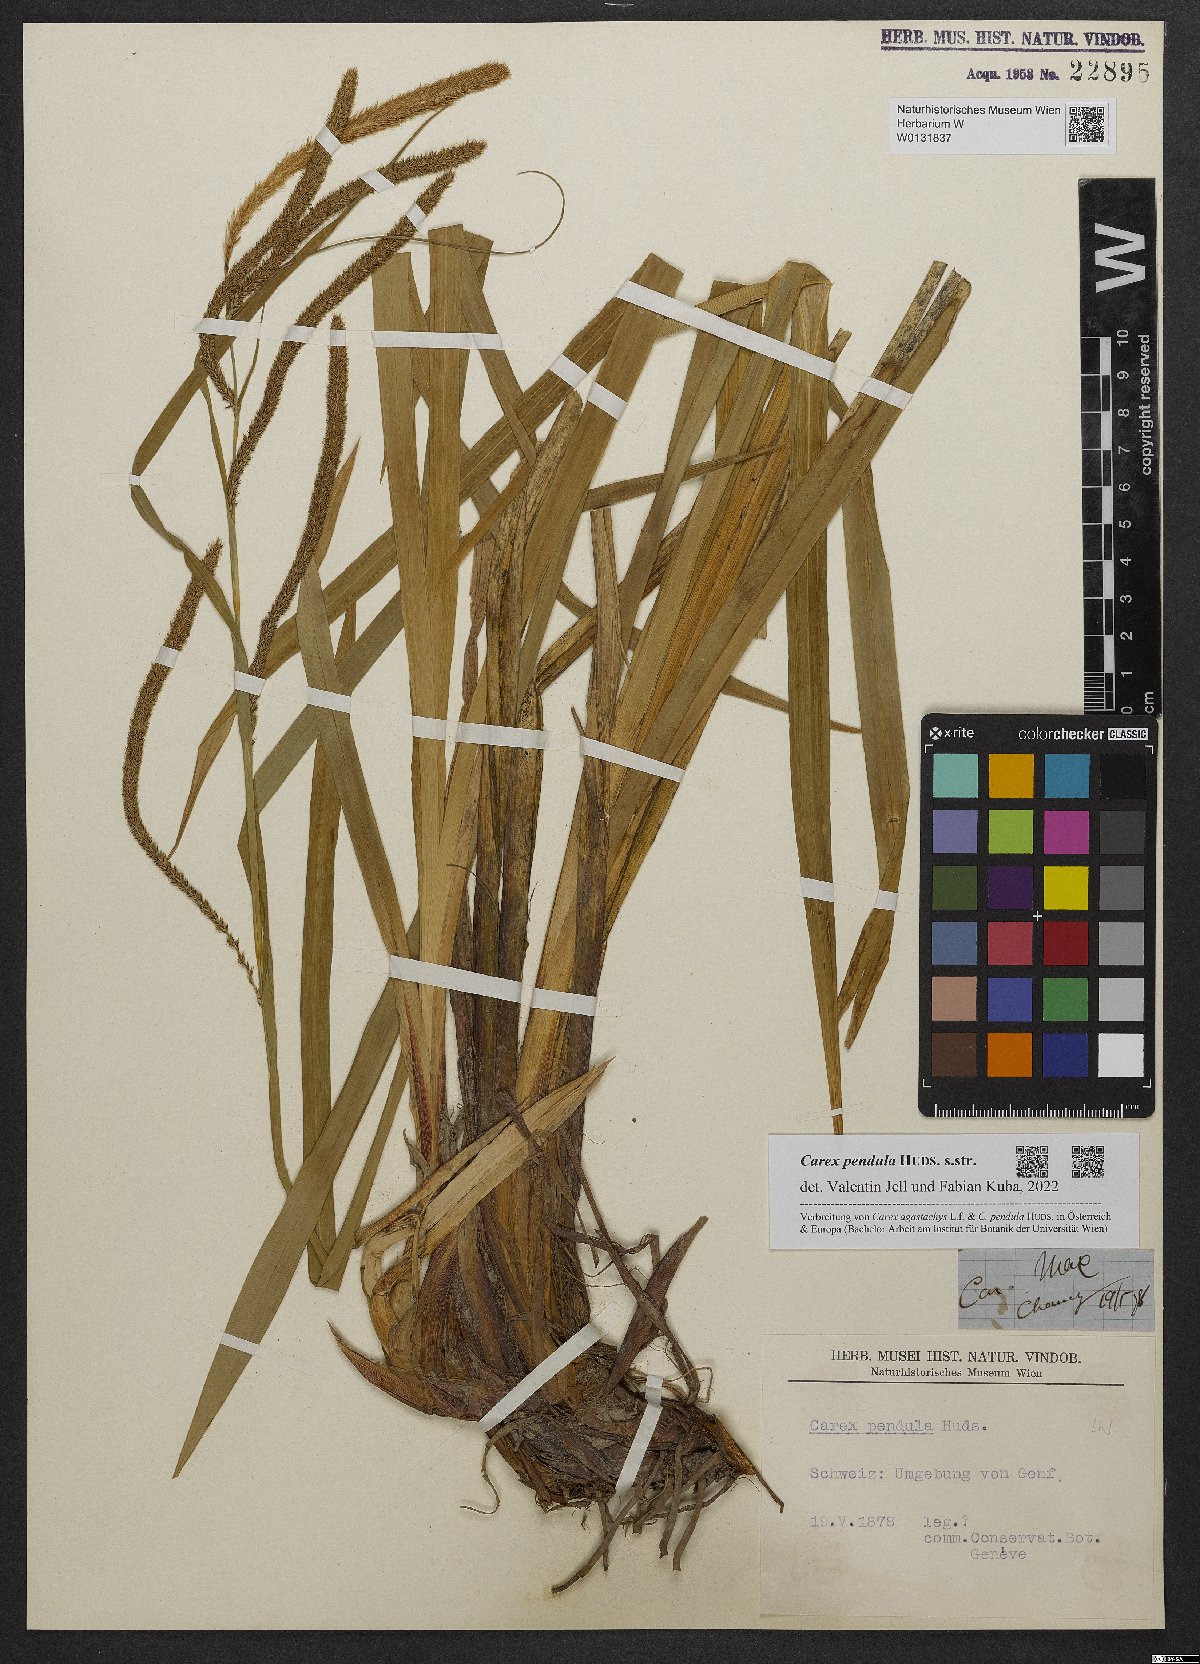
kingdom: Plantae
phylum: Tracheophyta
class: Liliopsida
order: Poales
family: Cyperaceae
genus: Carex
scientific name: Carex pendula
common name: Pendulous sedge
